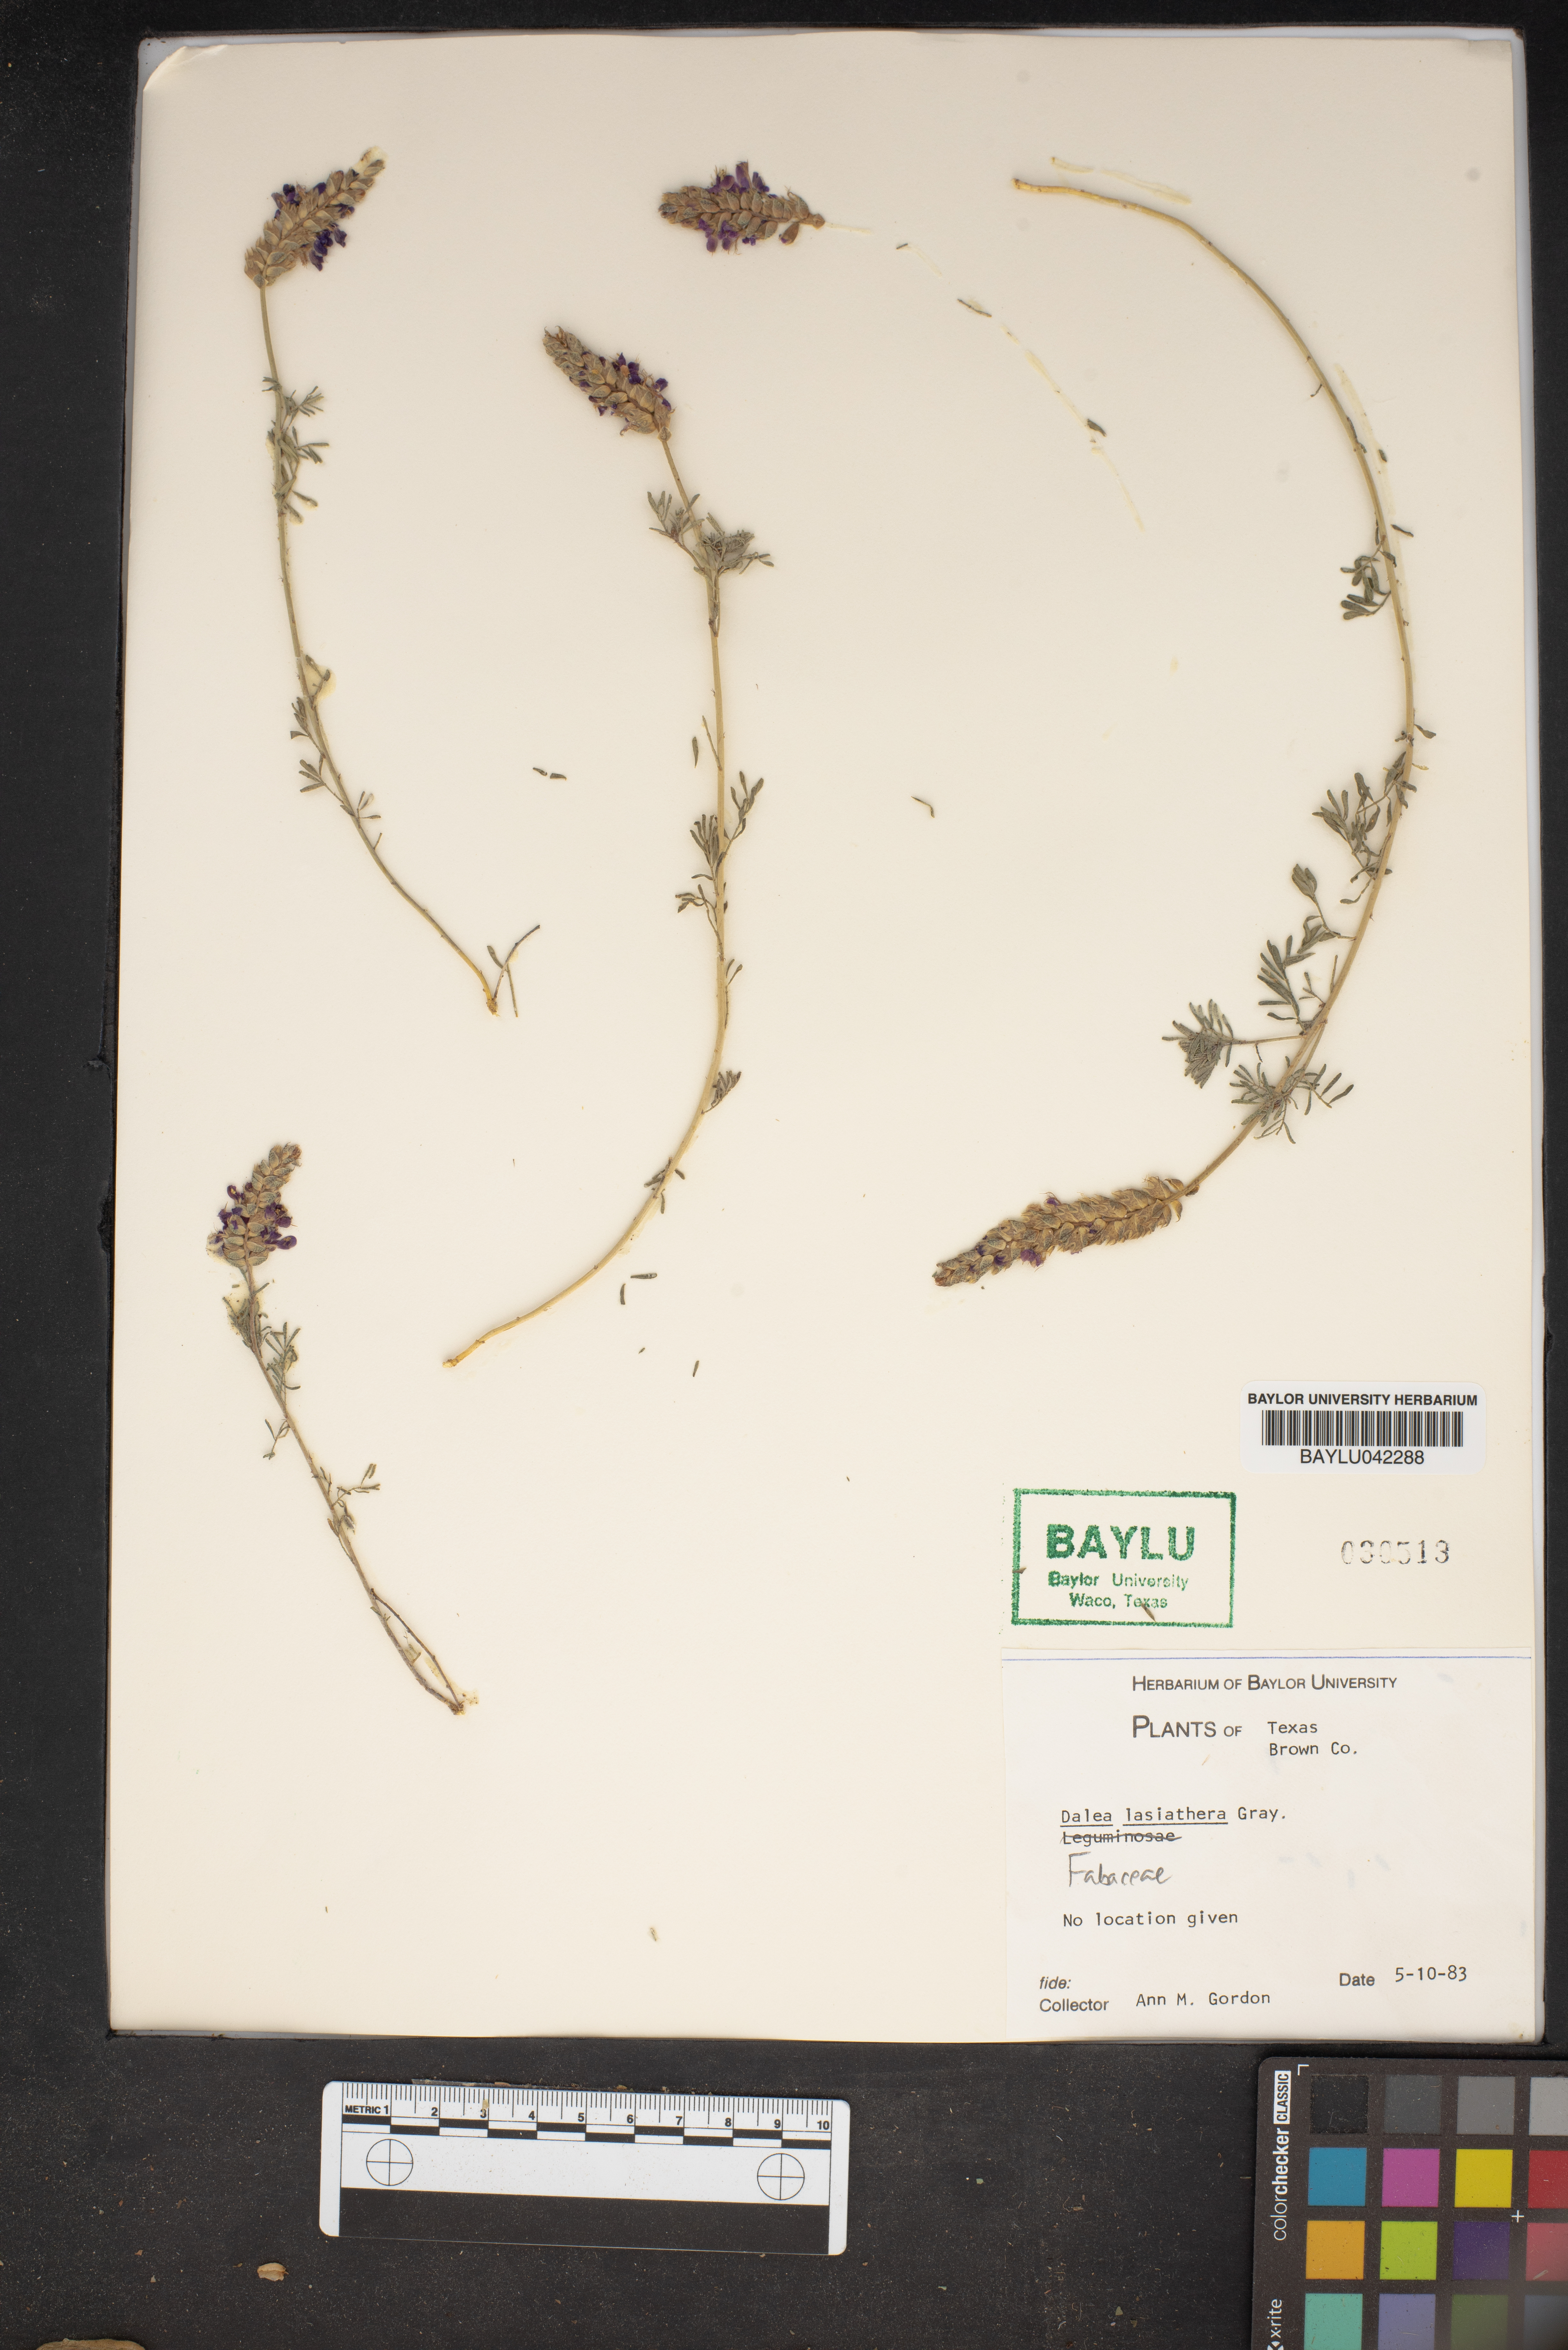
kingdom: Plantae
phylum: Tracheophyta
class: Magnoliopsida
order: Fabales
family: Fabaceae
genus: Dalea
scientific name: Dalea lasiathera
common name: Purple prairie-clover
